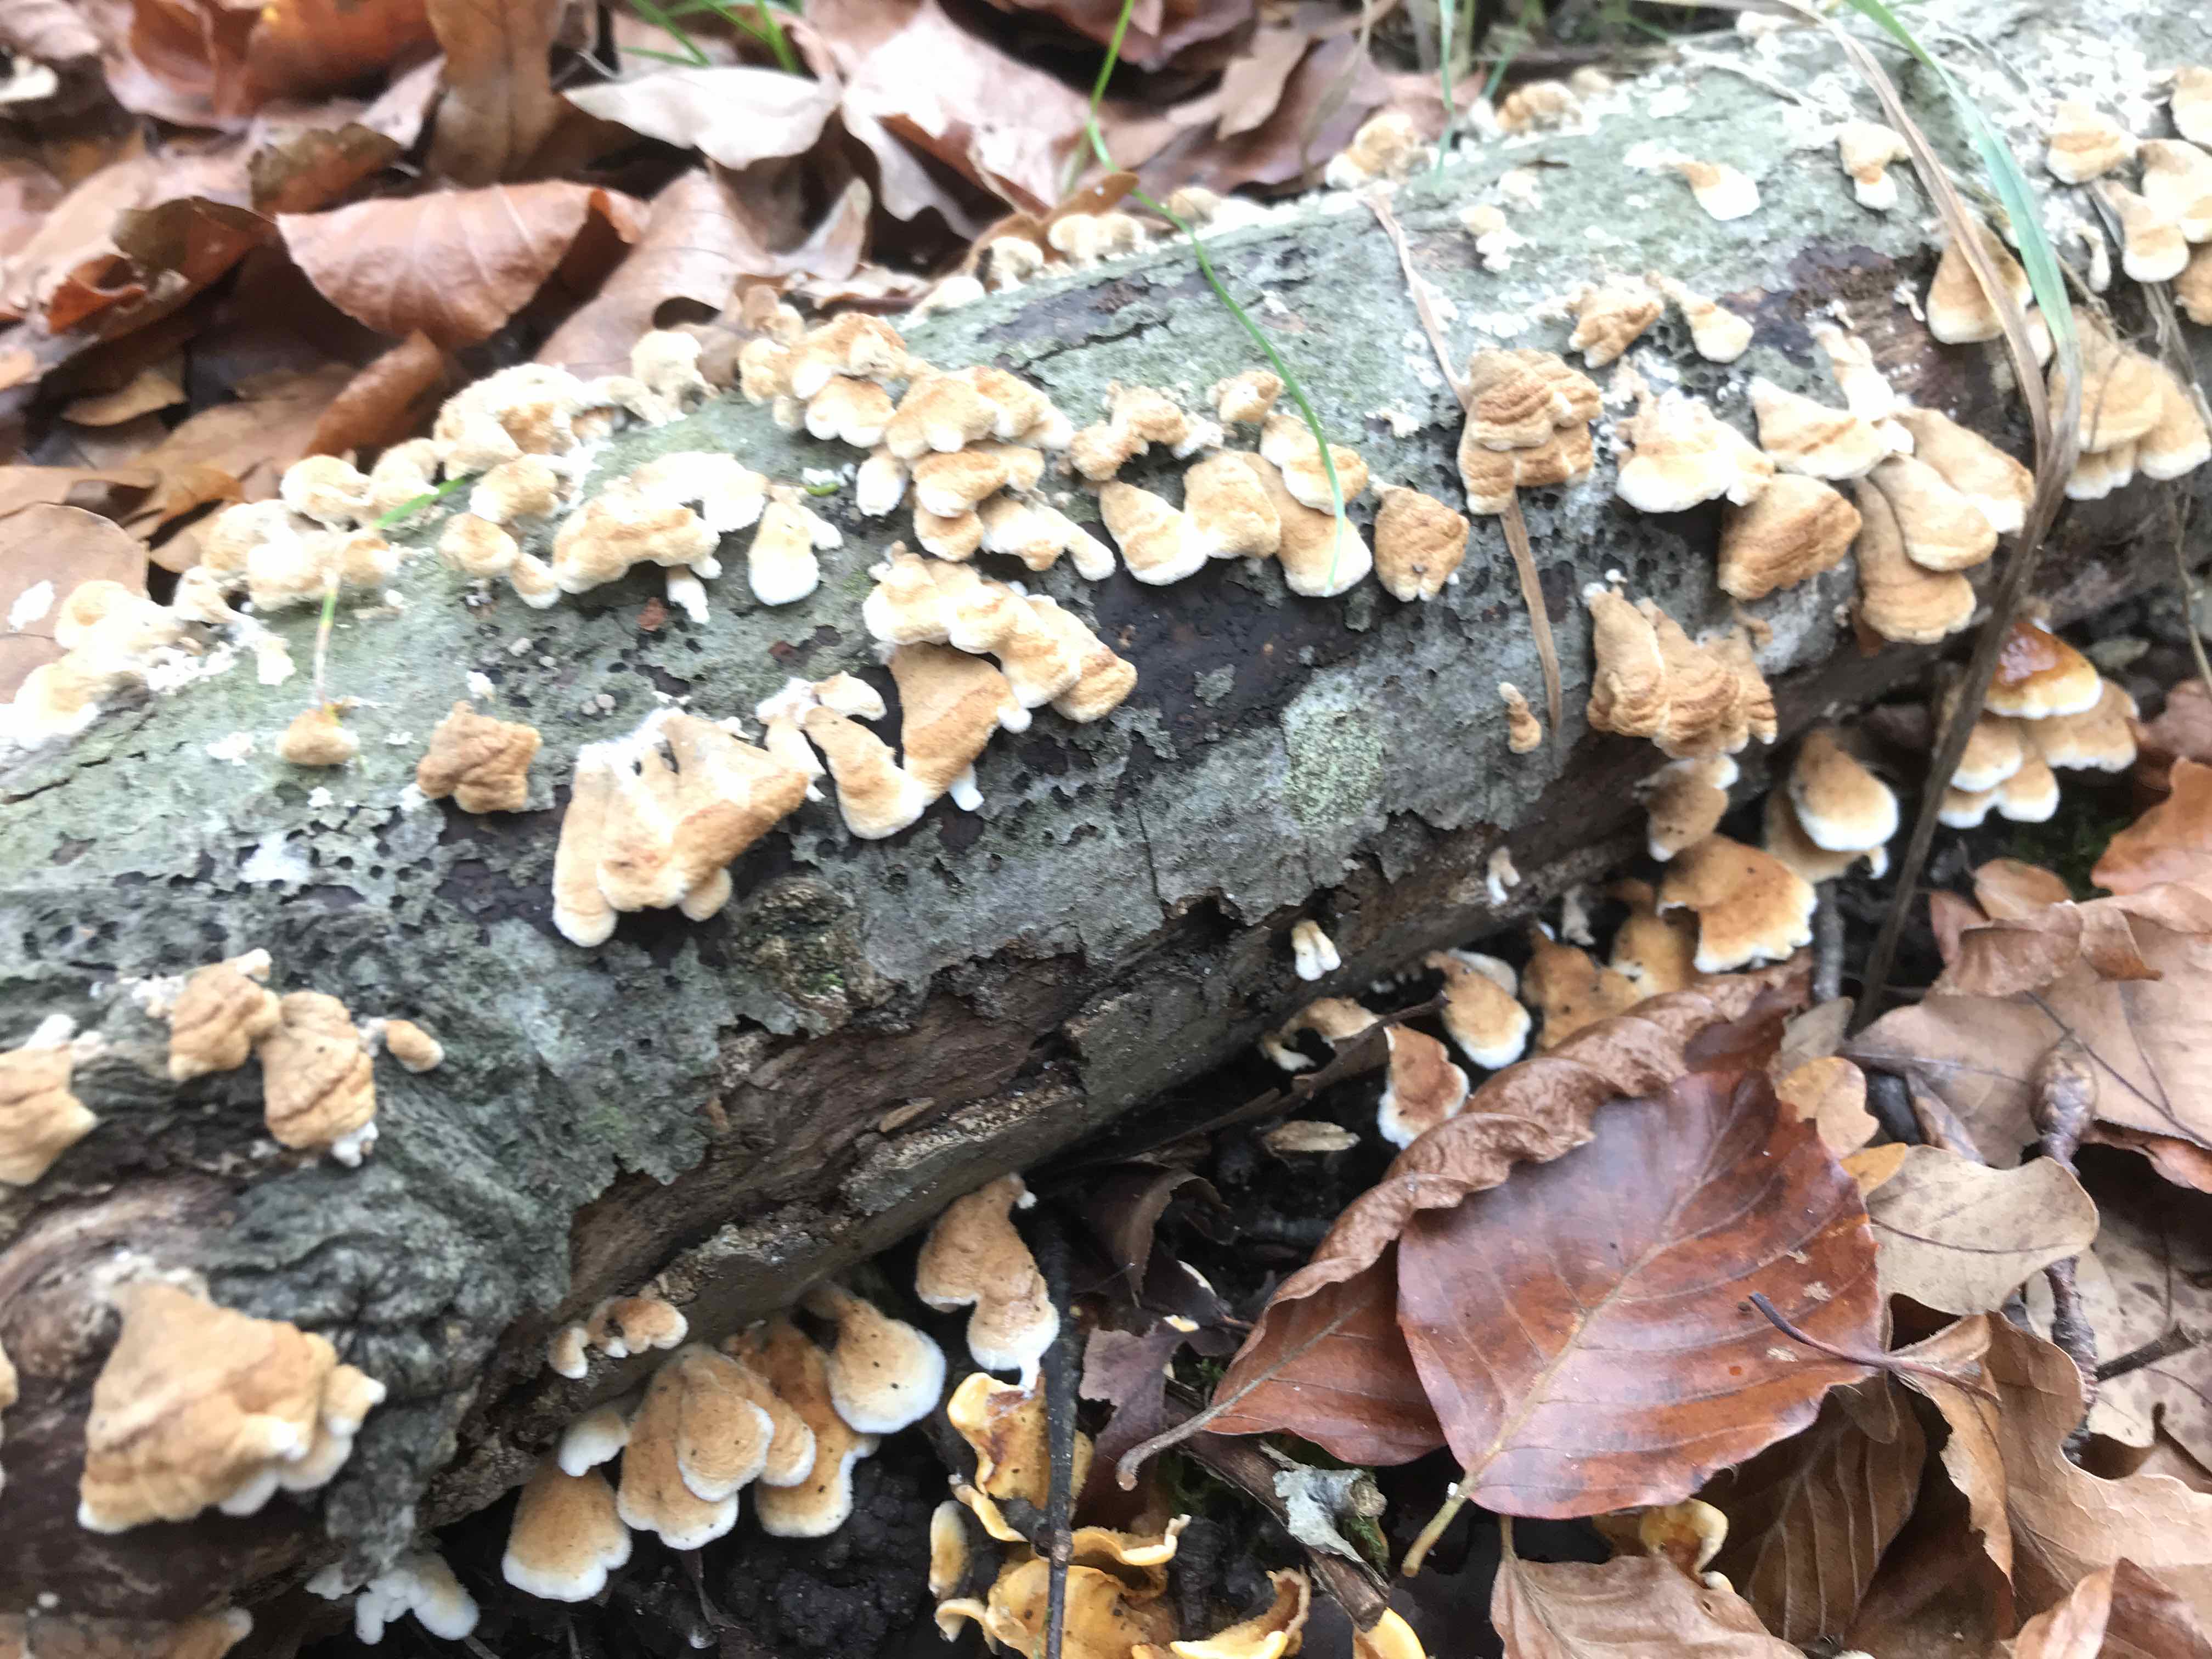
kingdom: Fungi
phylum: Basidiomycota
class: Agaricomycetes
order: Amylocorticiales
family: Amylocorticiaceae
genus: Plicaturopsis
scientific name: Plicaturopsis crispa
